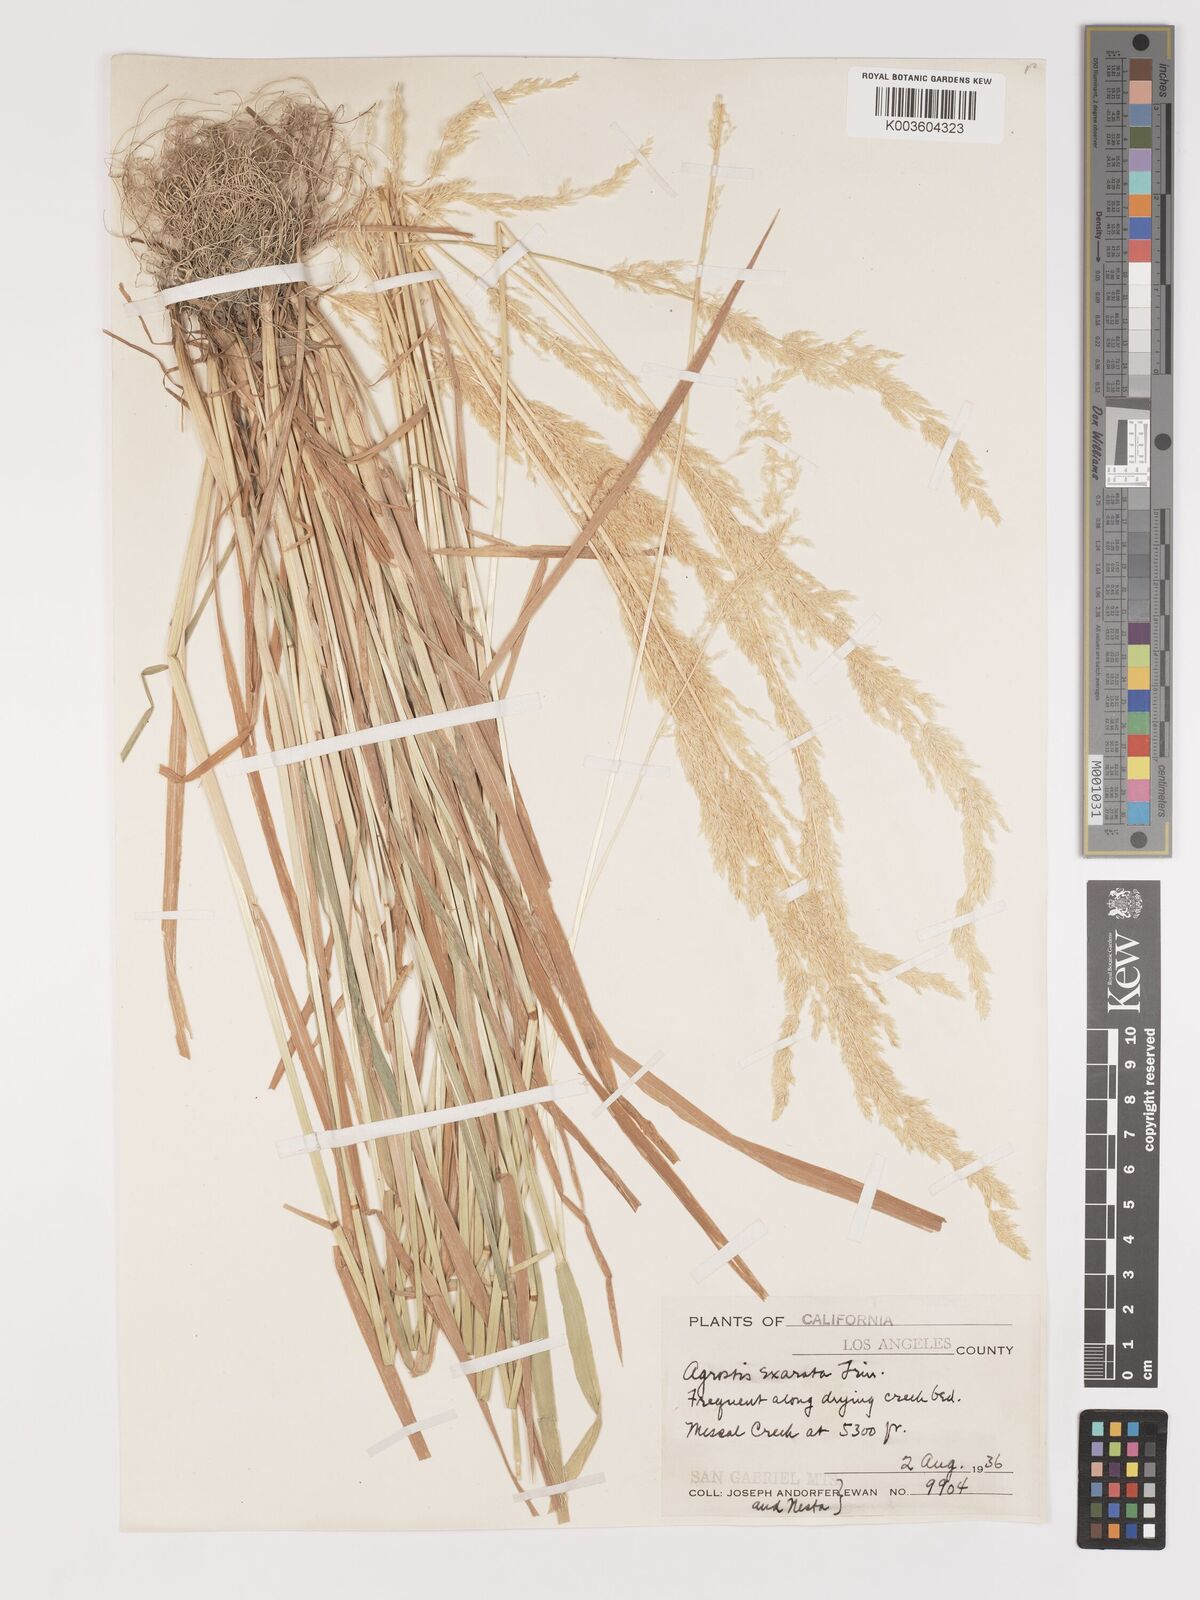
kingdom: Plantae
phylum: Tracheophyta
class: Liliopsida
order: Poales
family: Poaceae
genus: Agrostis
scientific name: Agrostis exarata
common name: Spike bent
